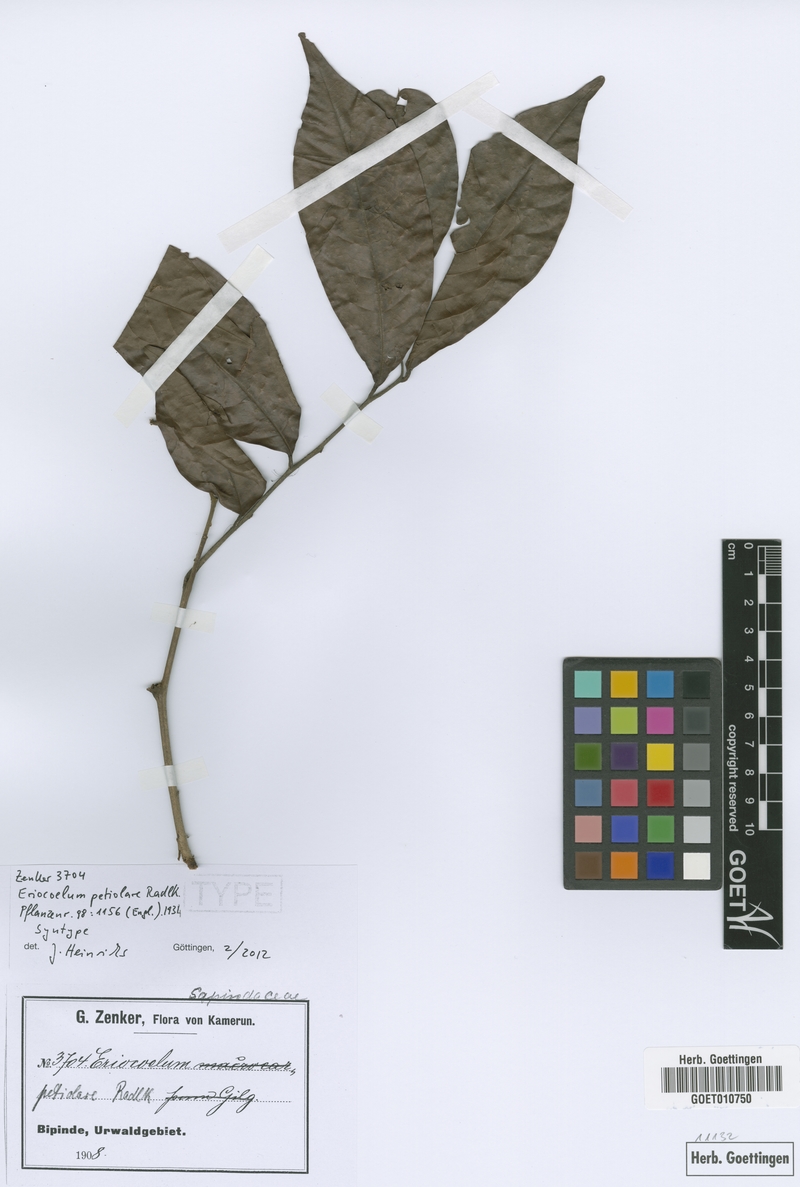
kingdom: Plantae
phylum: Tracheophyta
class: Magnoliopsida
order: Sapindales
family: Sapindaceae
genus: Eriocoelum
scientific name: Eriocoelum petiolare
